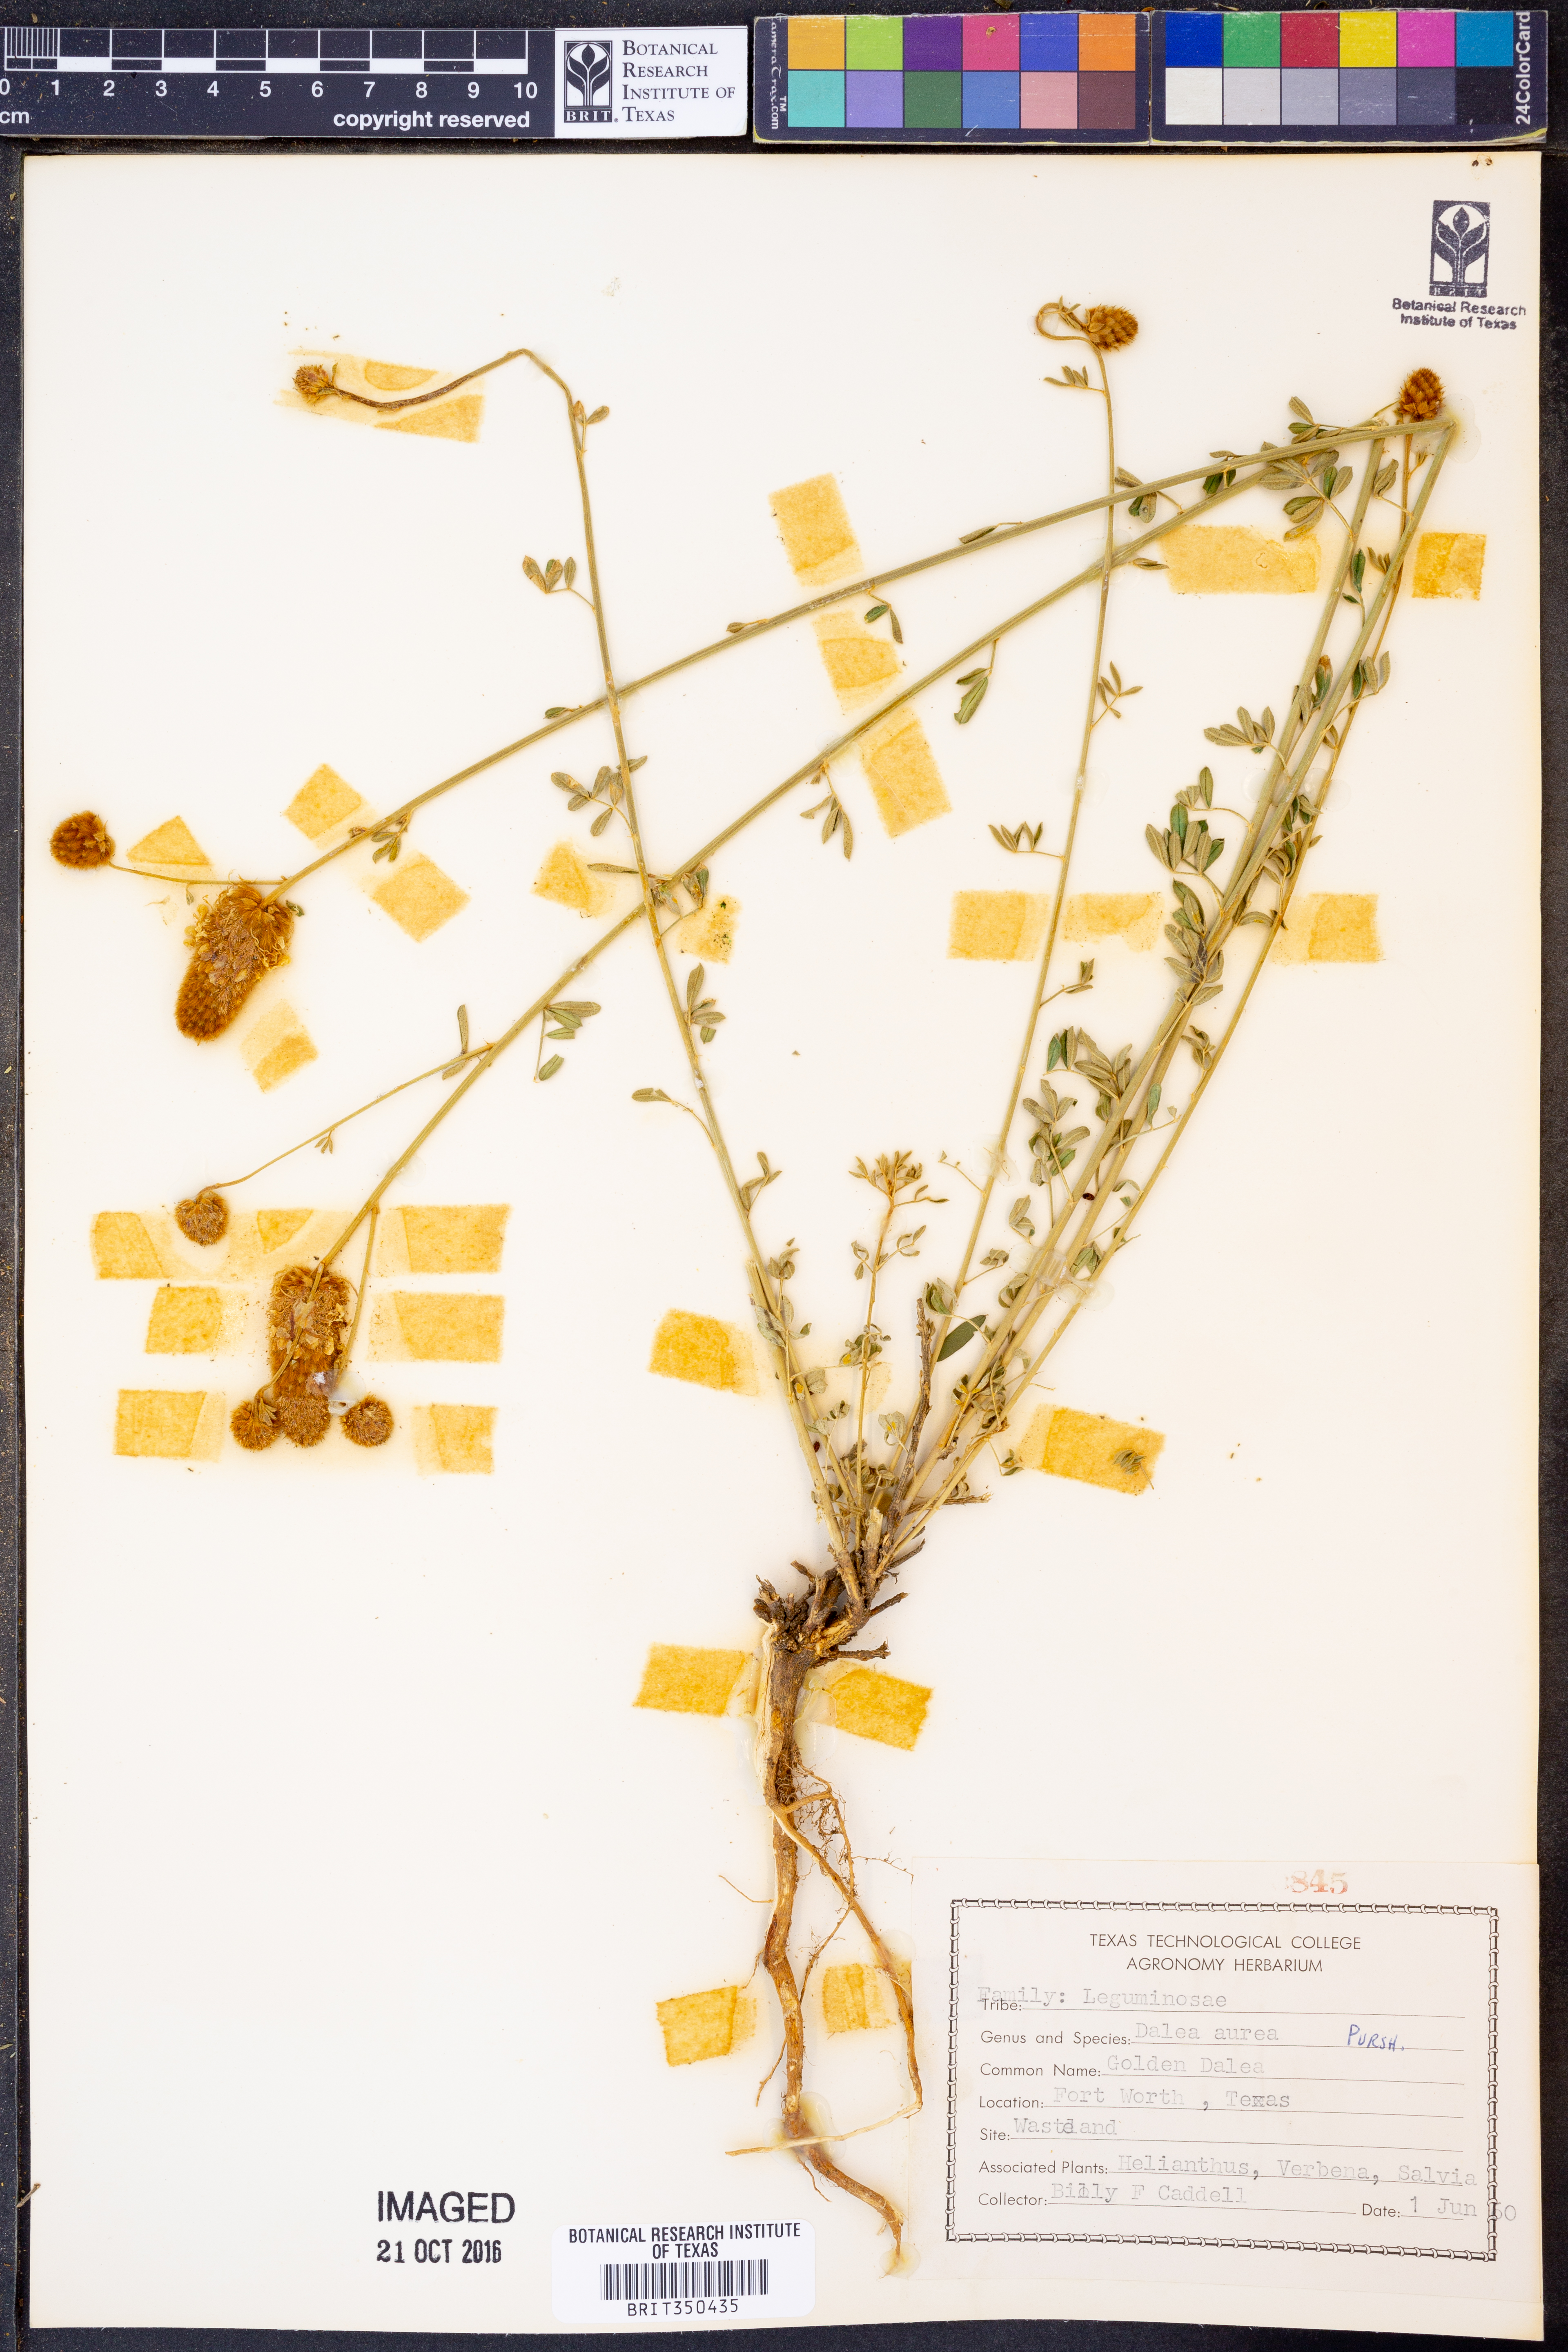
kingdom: Plantae
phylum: Tracheophyta
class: Magnoliopsida
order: Fabales
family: Fabaceae
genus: Dalea
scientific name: Dalea aurea
